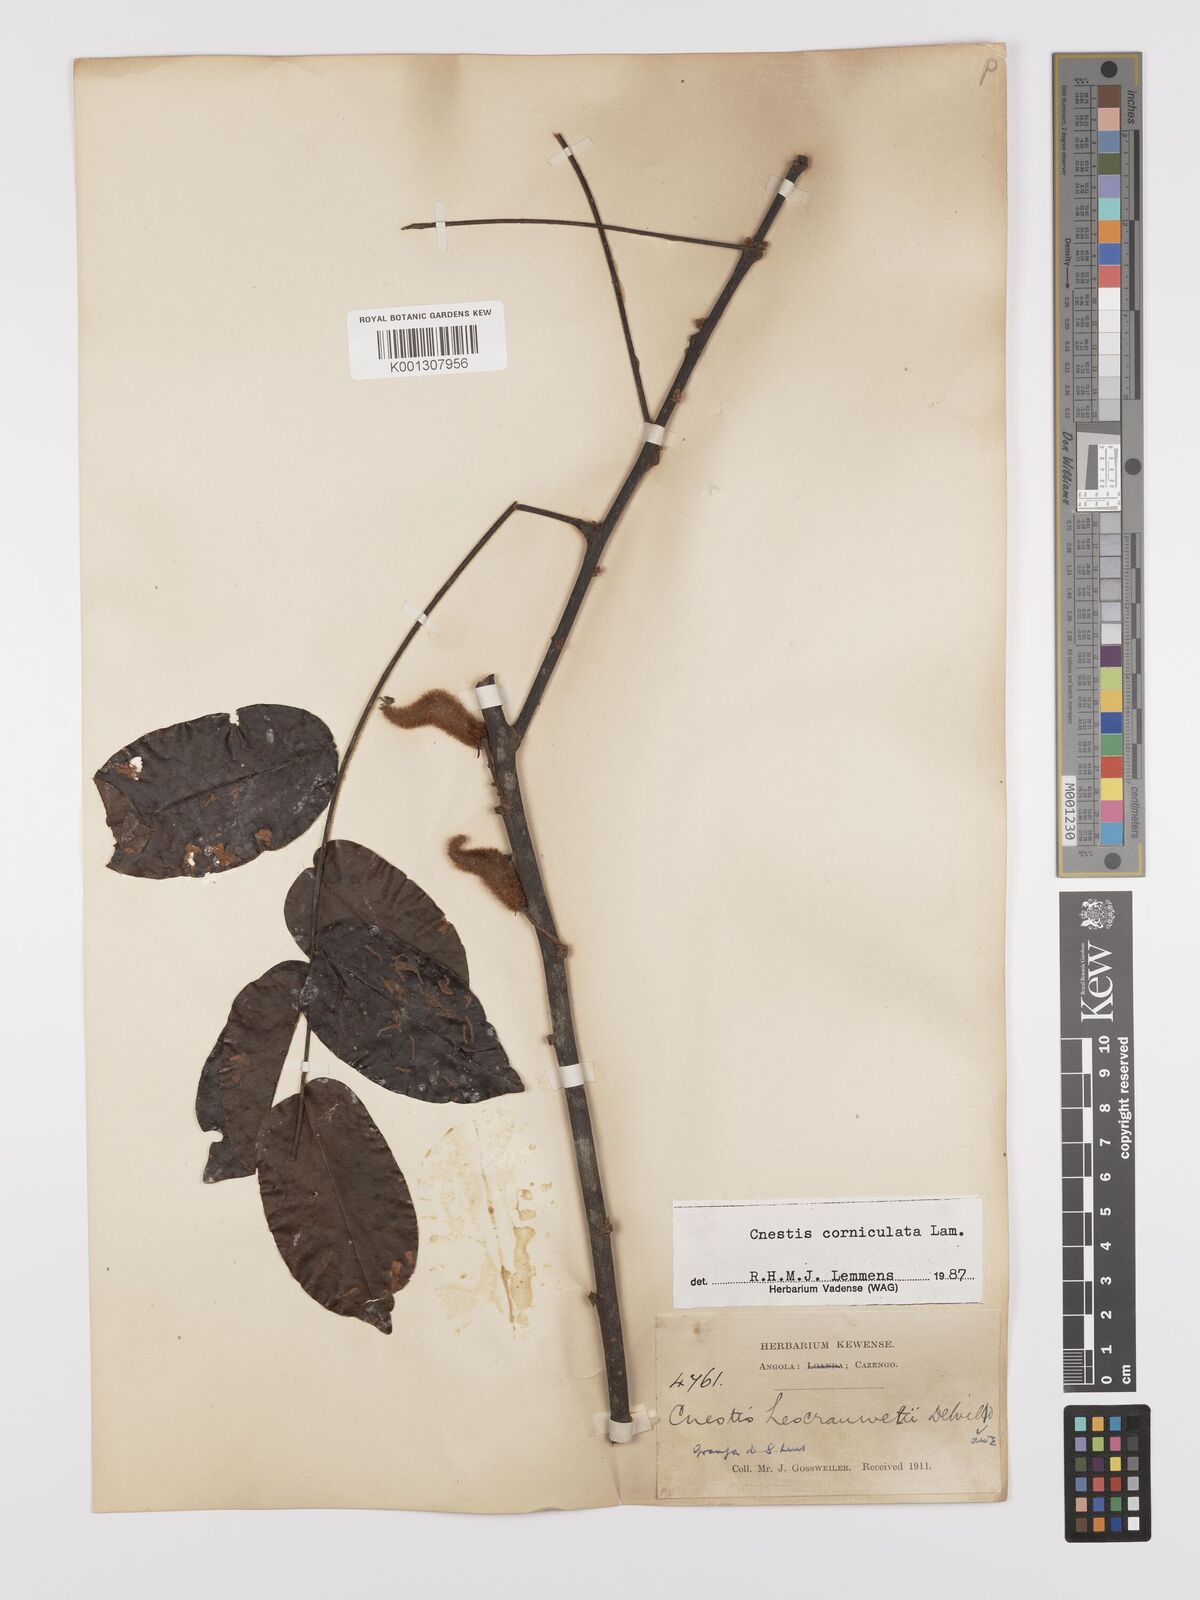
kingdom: Plantae
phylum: Tracheophyta
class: Magnoliopsida
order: Oxalidales
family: Connaraceae
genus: Cnestis
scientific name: Cnestis corniculata
